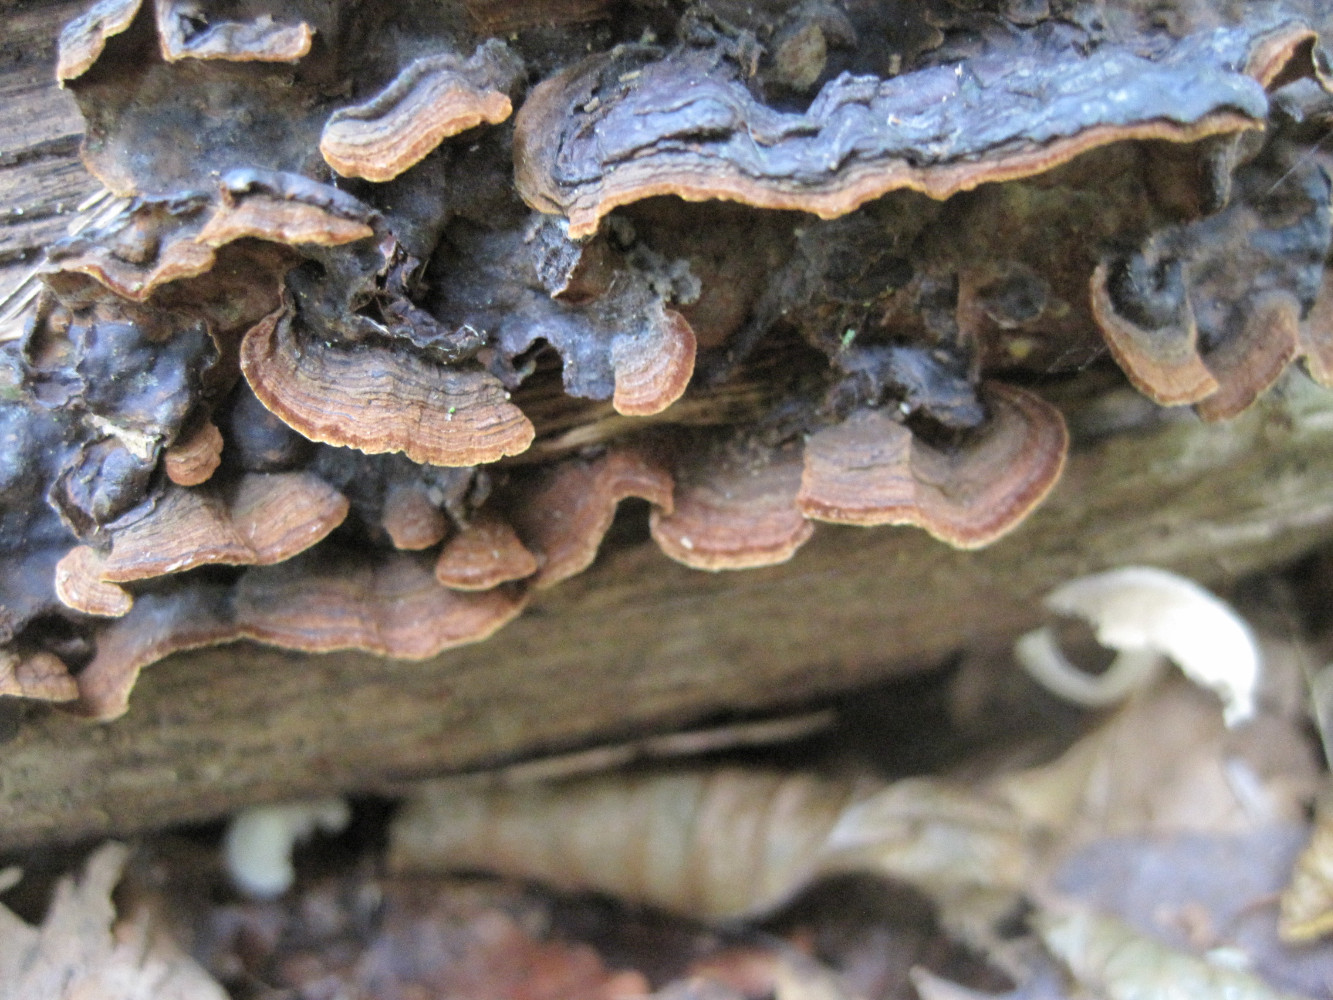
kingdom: Fungi
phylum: Basidiomycota
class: Agaricomycetes
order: Hymenochaetales
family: Hymenochaetaceae
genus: Hymenochaete
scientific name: Hymenochaete rubiginosa
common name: stiv ruslædersvamp
